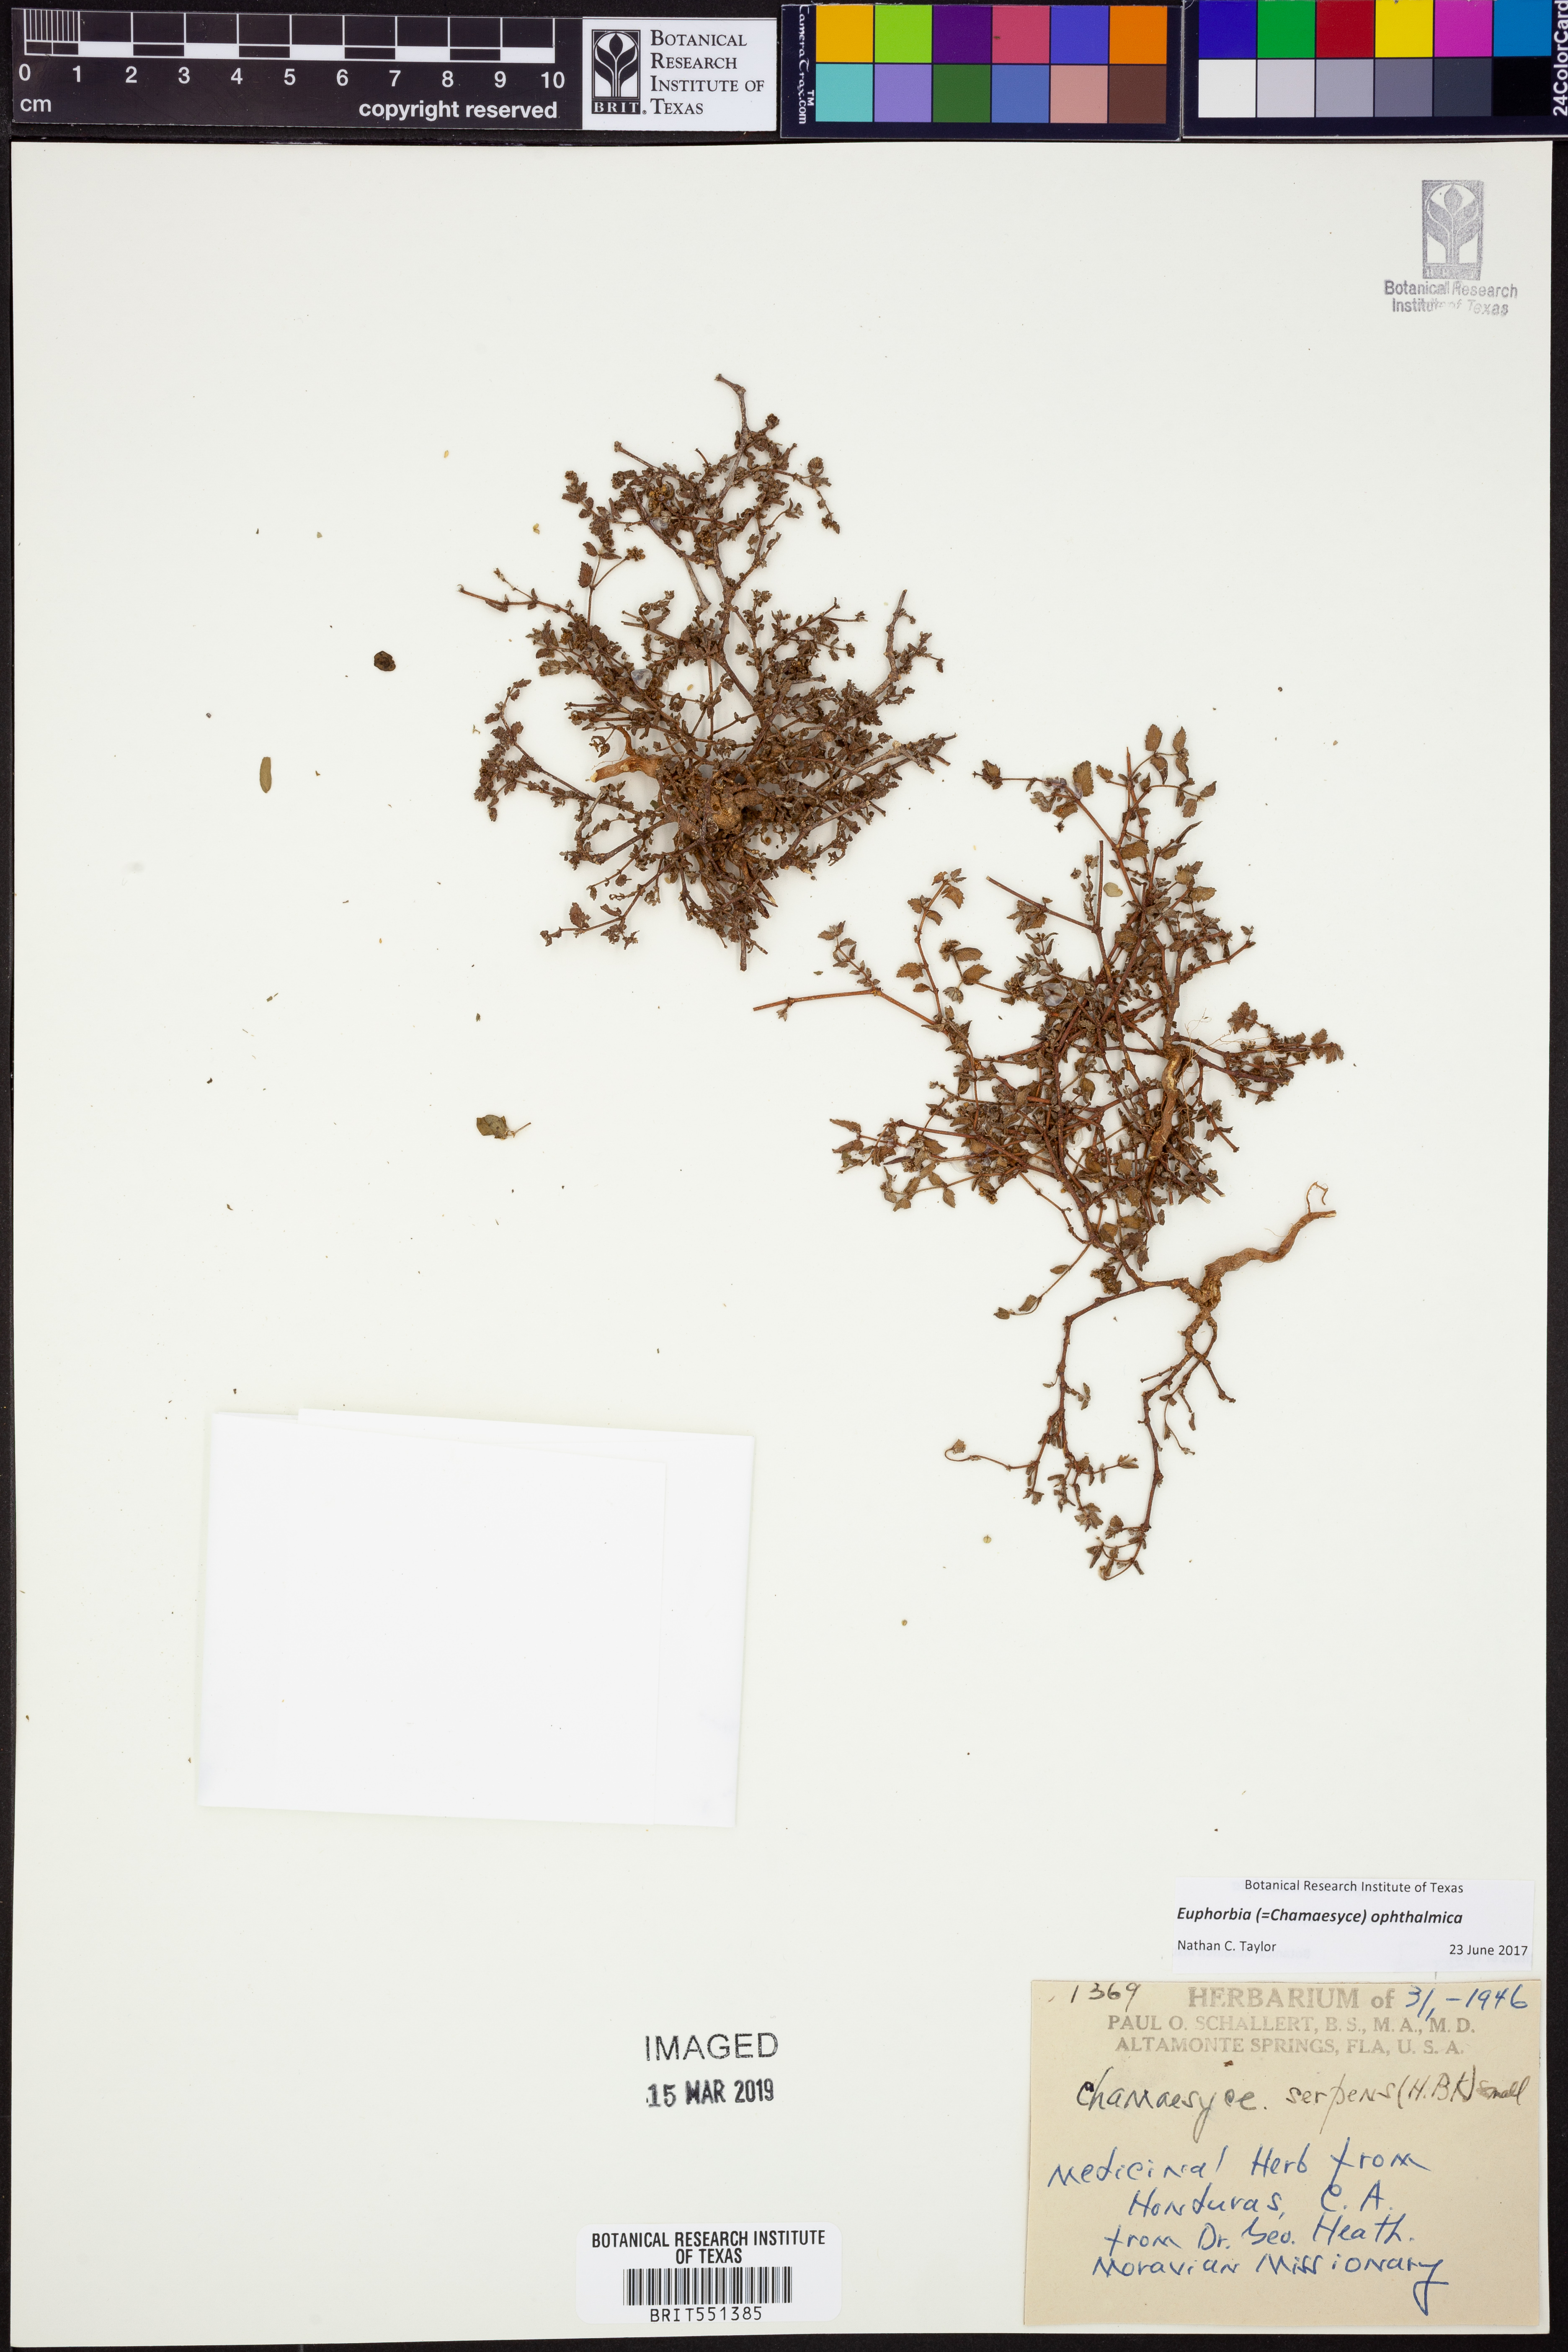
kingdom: Plantae
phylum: Tracheophyta
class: Magnoliopsida
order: Malpighiales
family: Euphorbiaceae
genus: Euphorbia
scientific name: Euphorbia ophthalmica
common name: Florida hammock sandmat
